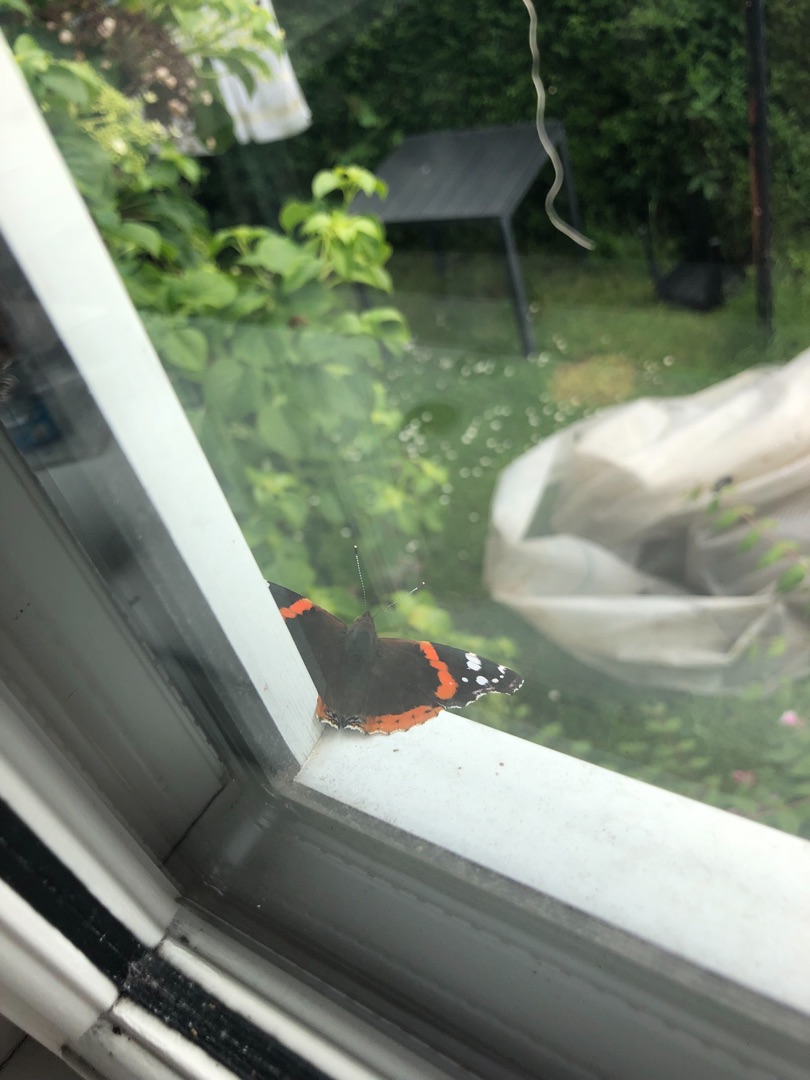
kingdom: Animalia
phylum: Arthropoda
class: Insecta
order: Lepidoptera
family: Nymphalidae
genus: Vanessa
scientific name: Vanessa atalanta
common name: Admiral
